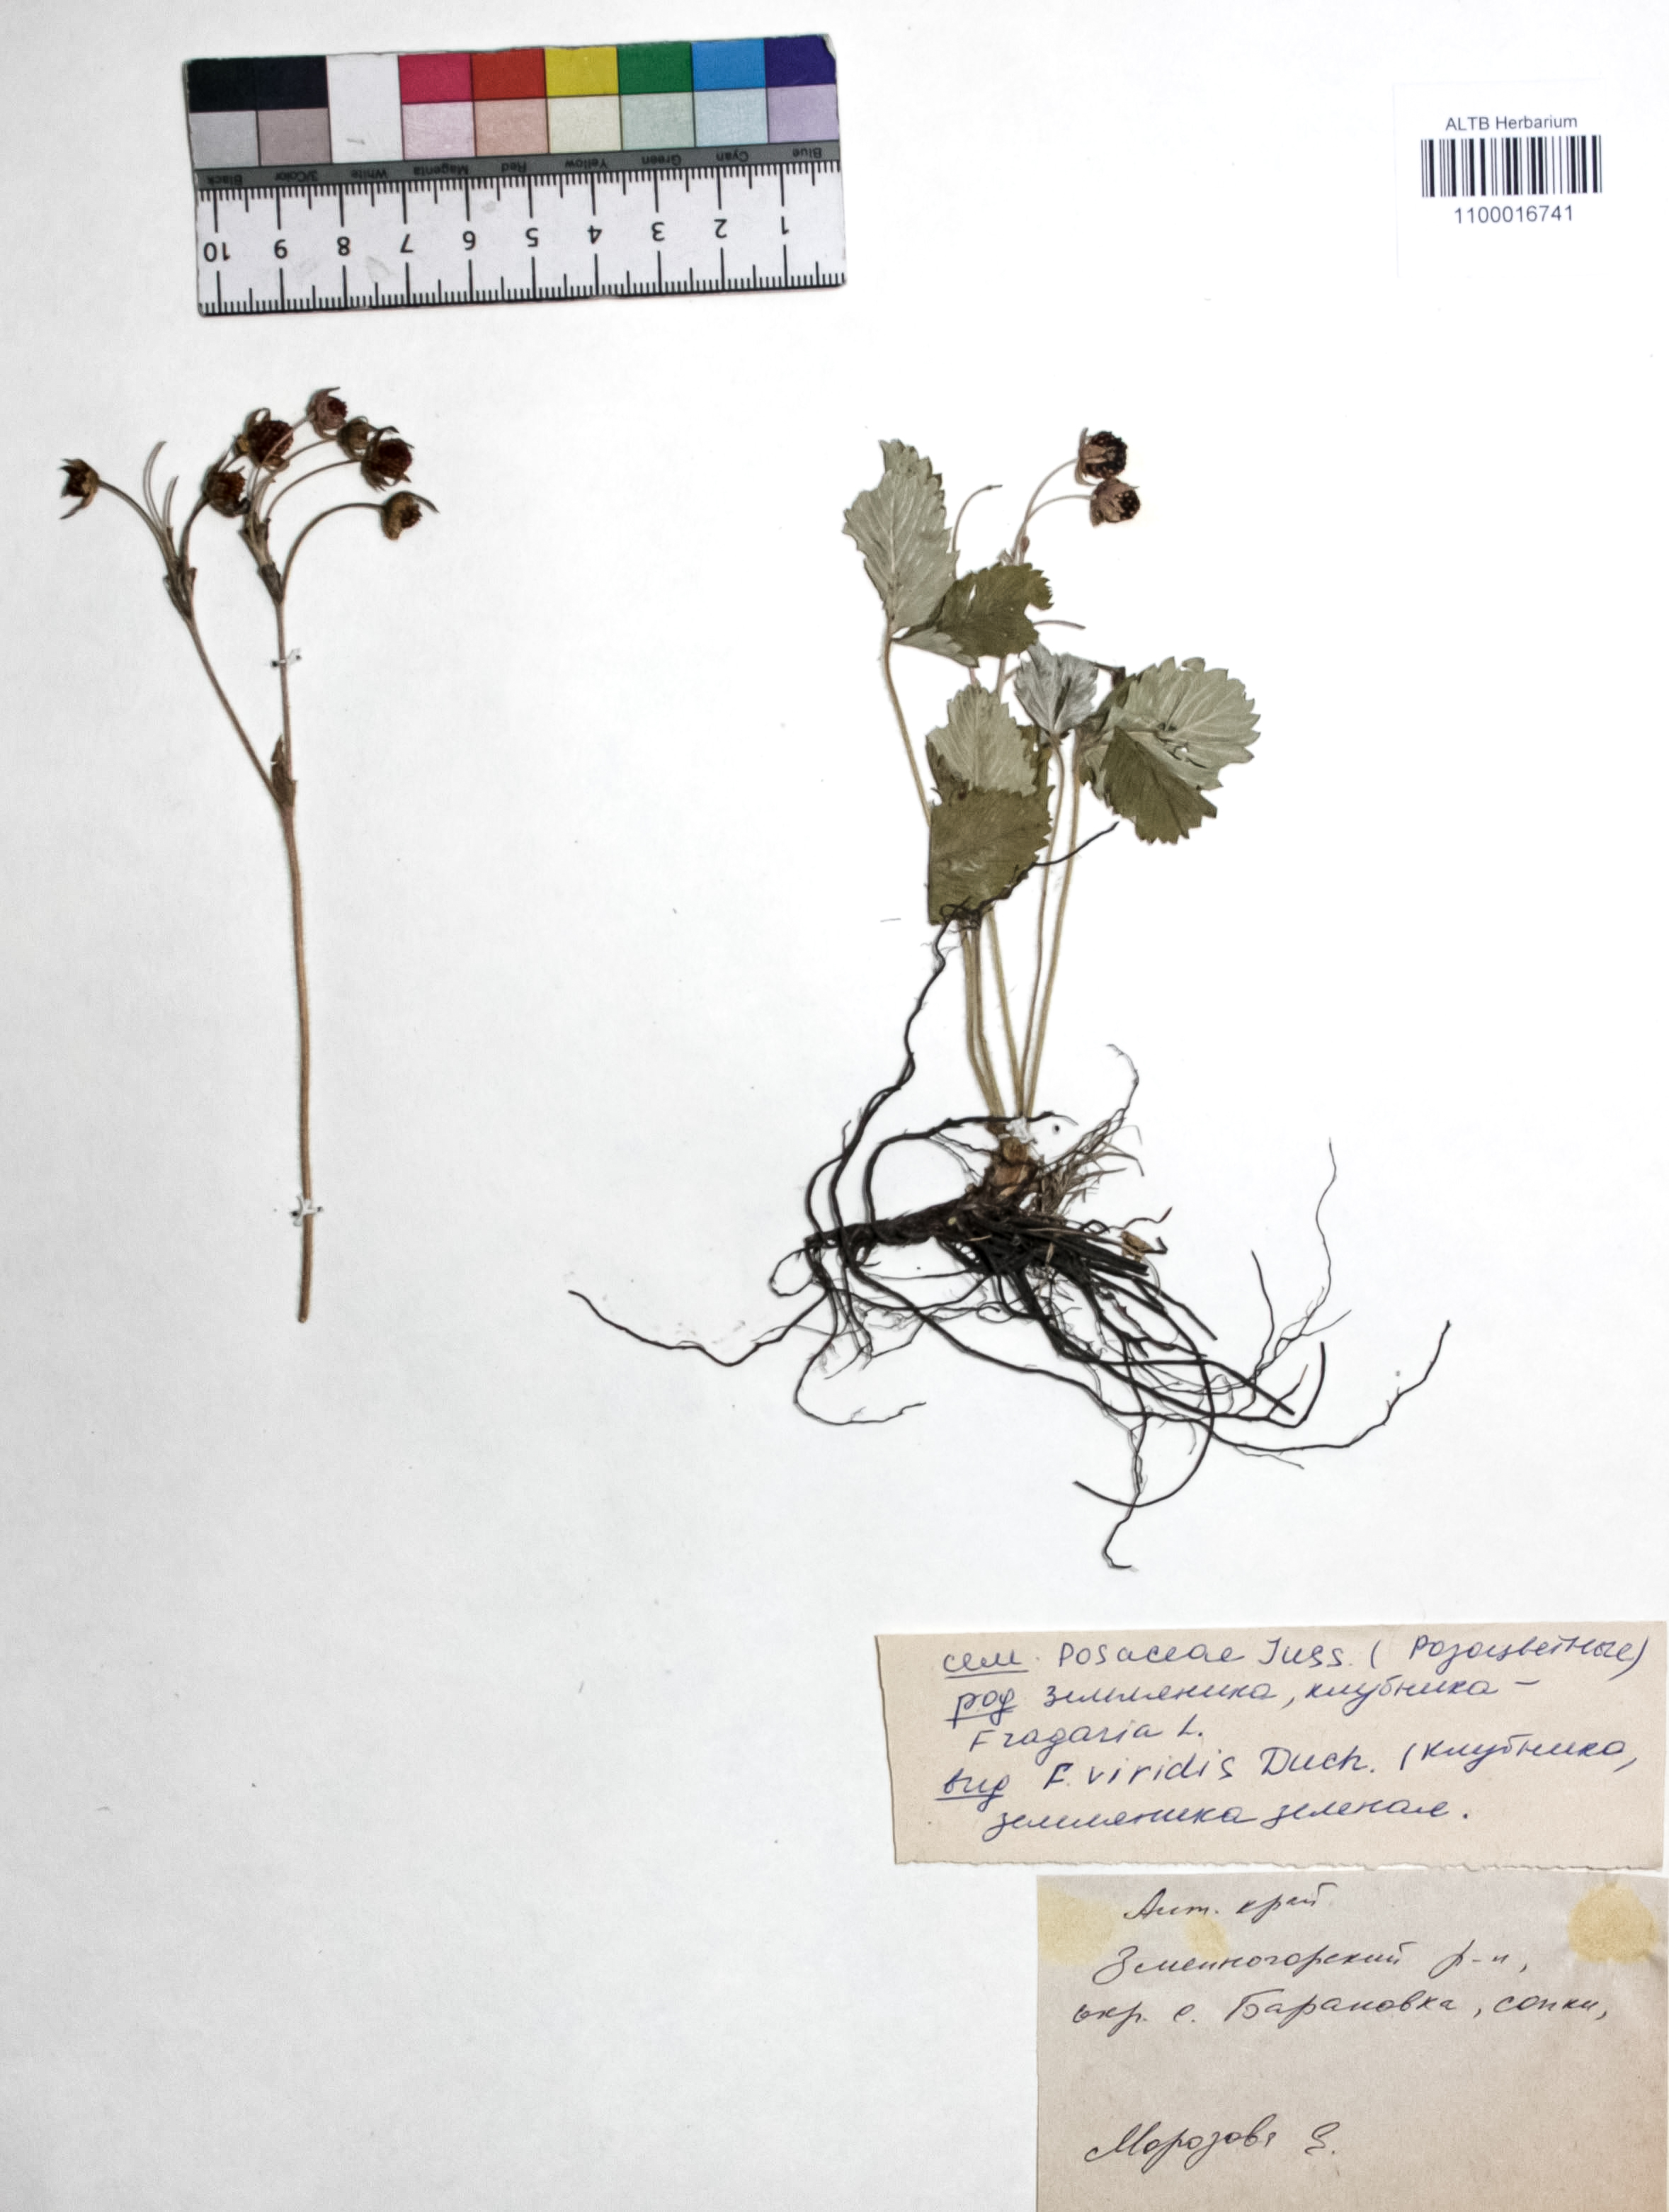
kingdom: Plantae
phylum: Tracheophyta
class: Magnoliopsida
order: Rosales
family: Rosaceae
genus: Fragaria
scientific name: Fragaria viridis
